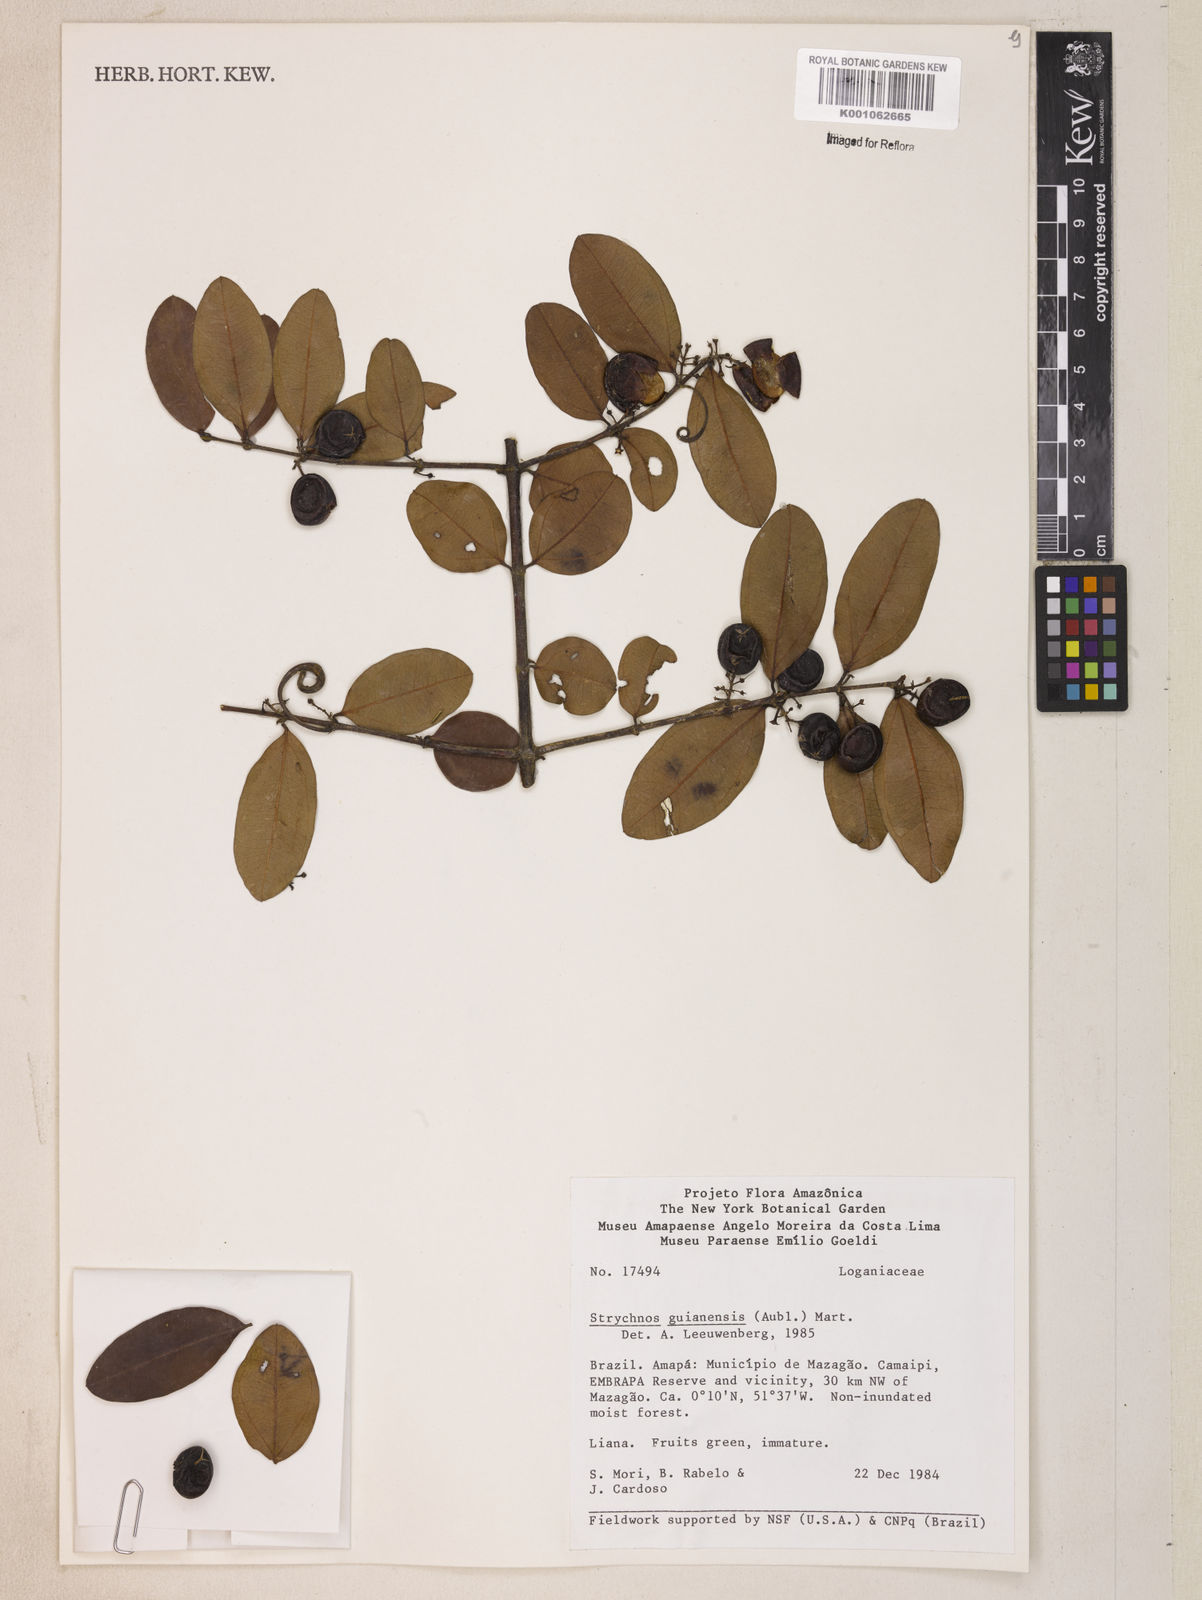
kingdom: Plantae
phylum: Tracheophyta
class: Magnoliopsida
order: Gentianales
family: Loganiaceae
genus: Strychnos
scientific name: Strychnos guianensis
